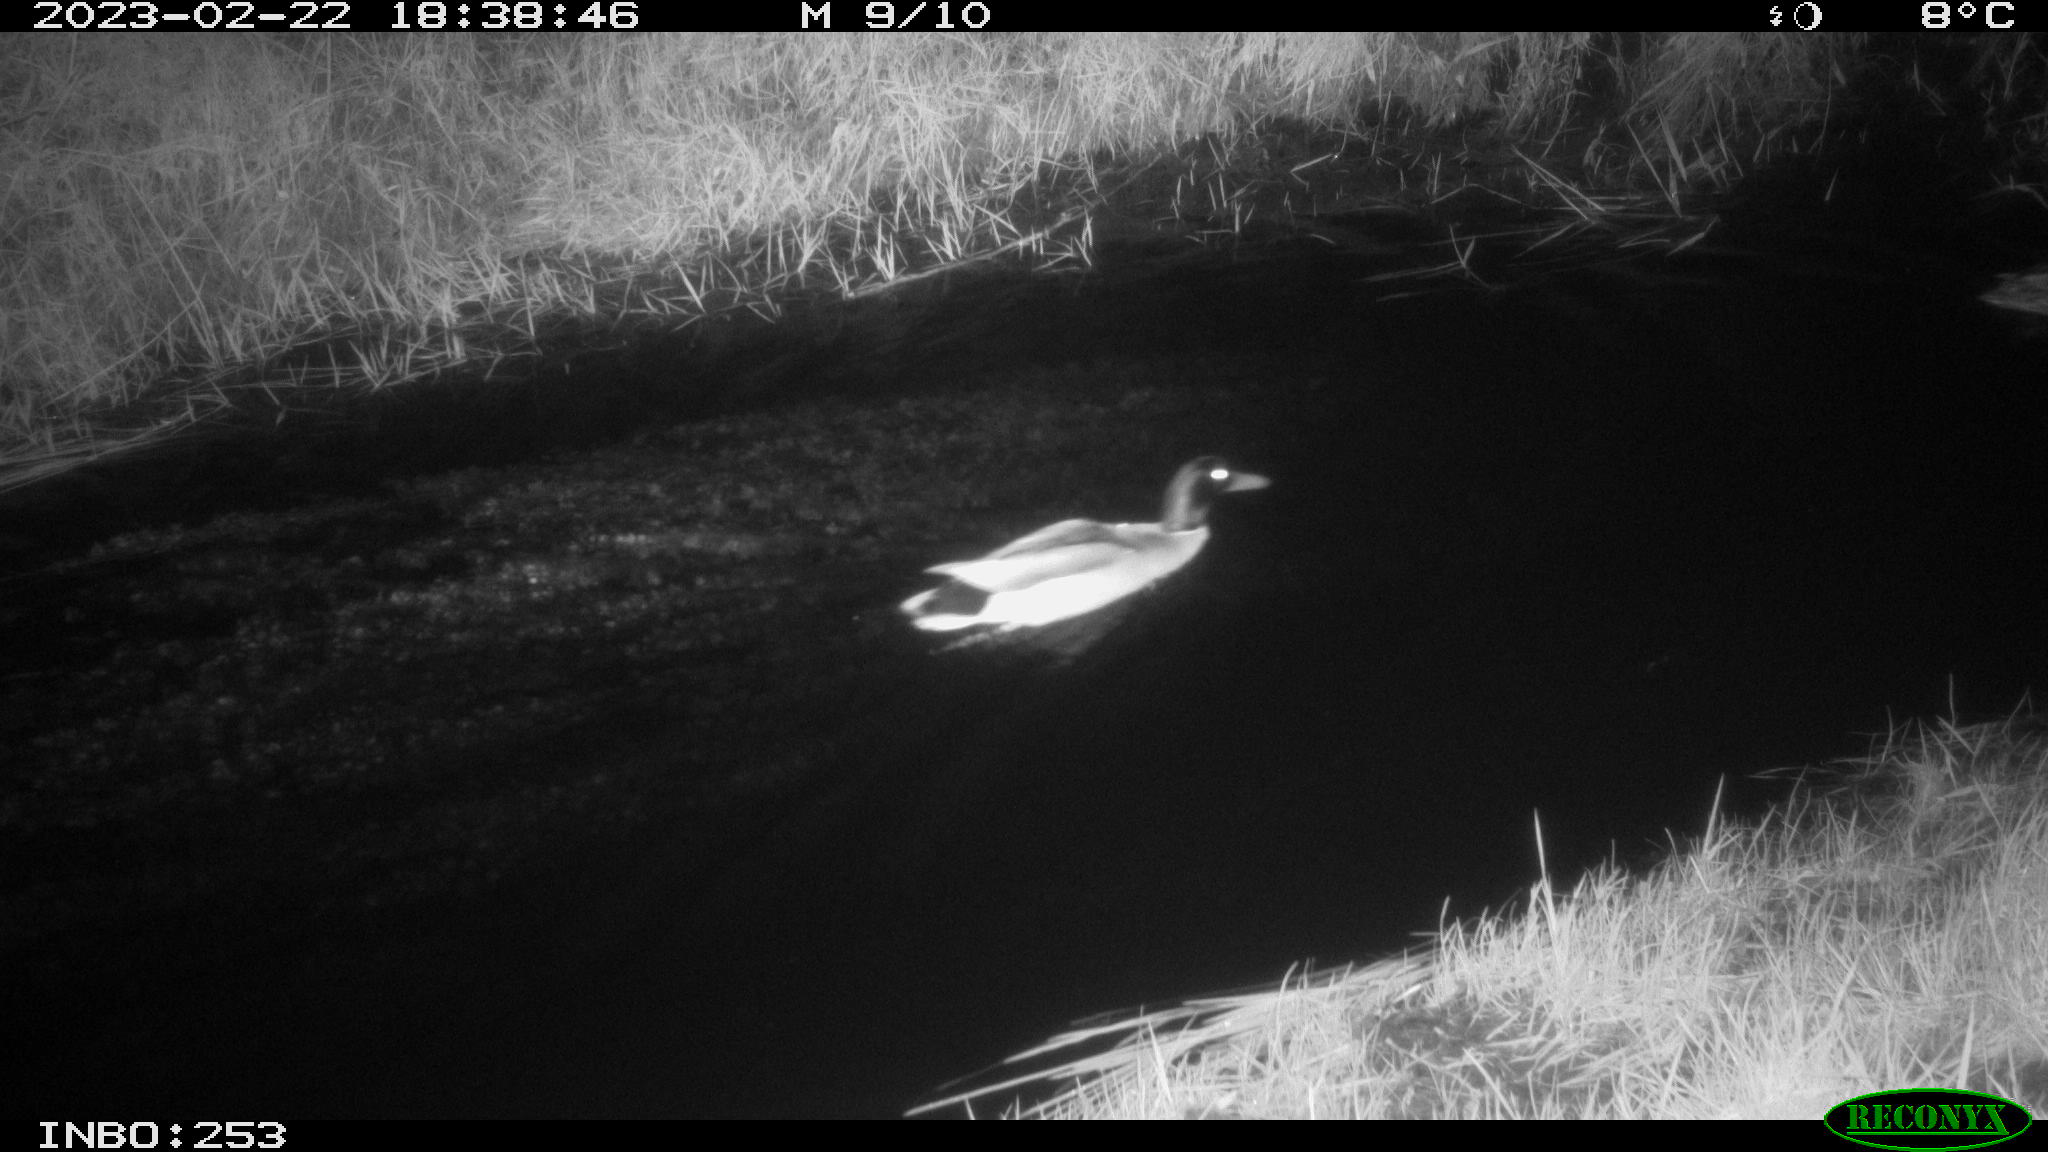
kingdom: Animalia
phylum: Chordata
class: Aves
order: Anseriformes
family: Anatidae
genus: Anas
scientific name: Anas
